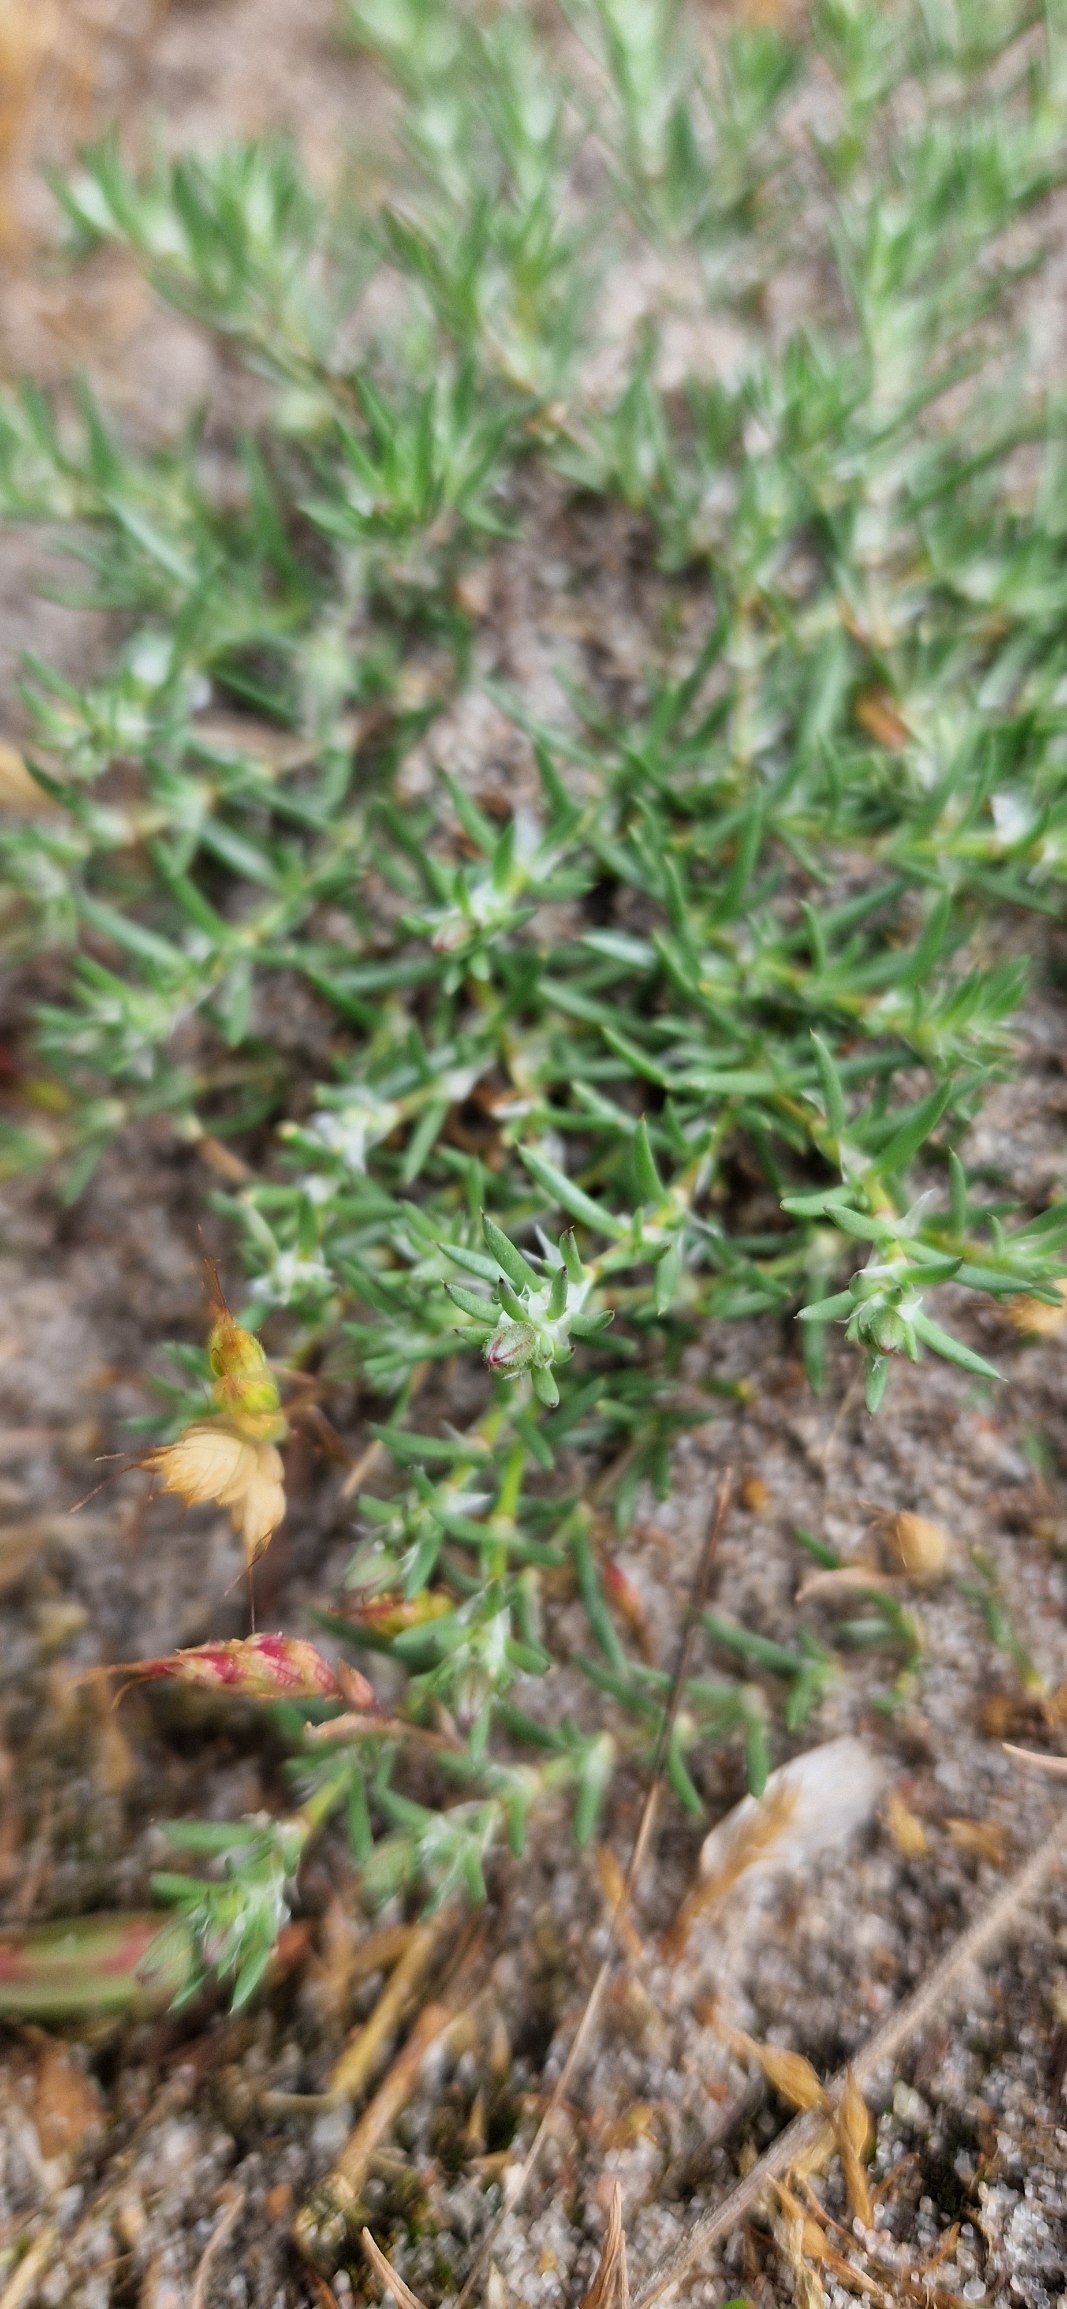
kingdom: Plantae
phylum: Tracheophyta
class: Magnoliopsida
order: Caryophyllales
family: Caryophyllaceae
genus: Spergularia
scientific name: Spergularia rubra
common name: Mark-hindeknæ
